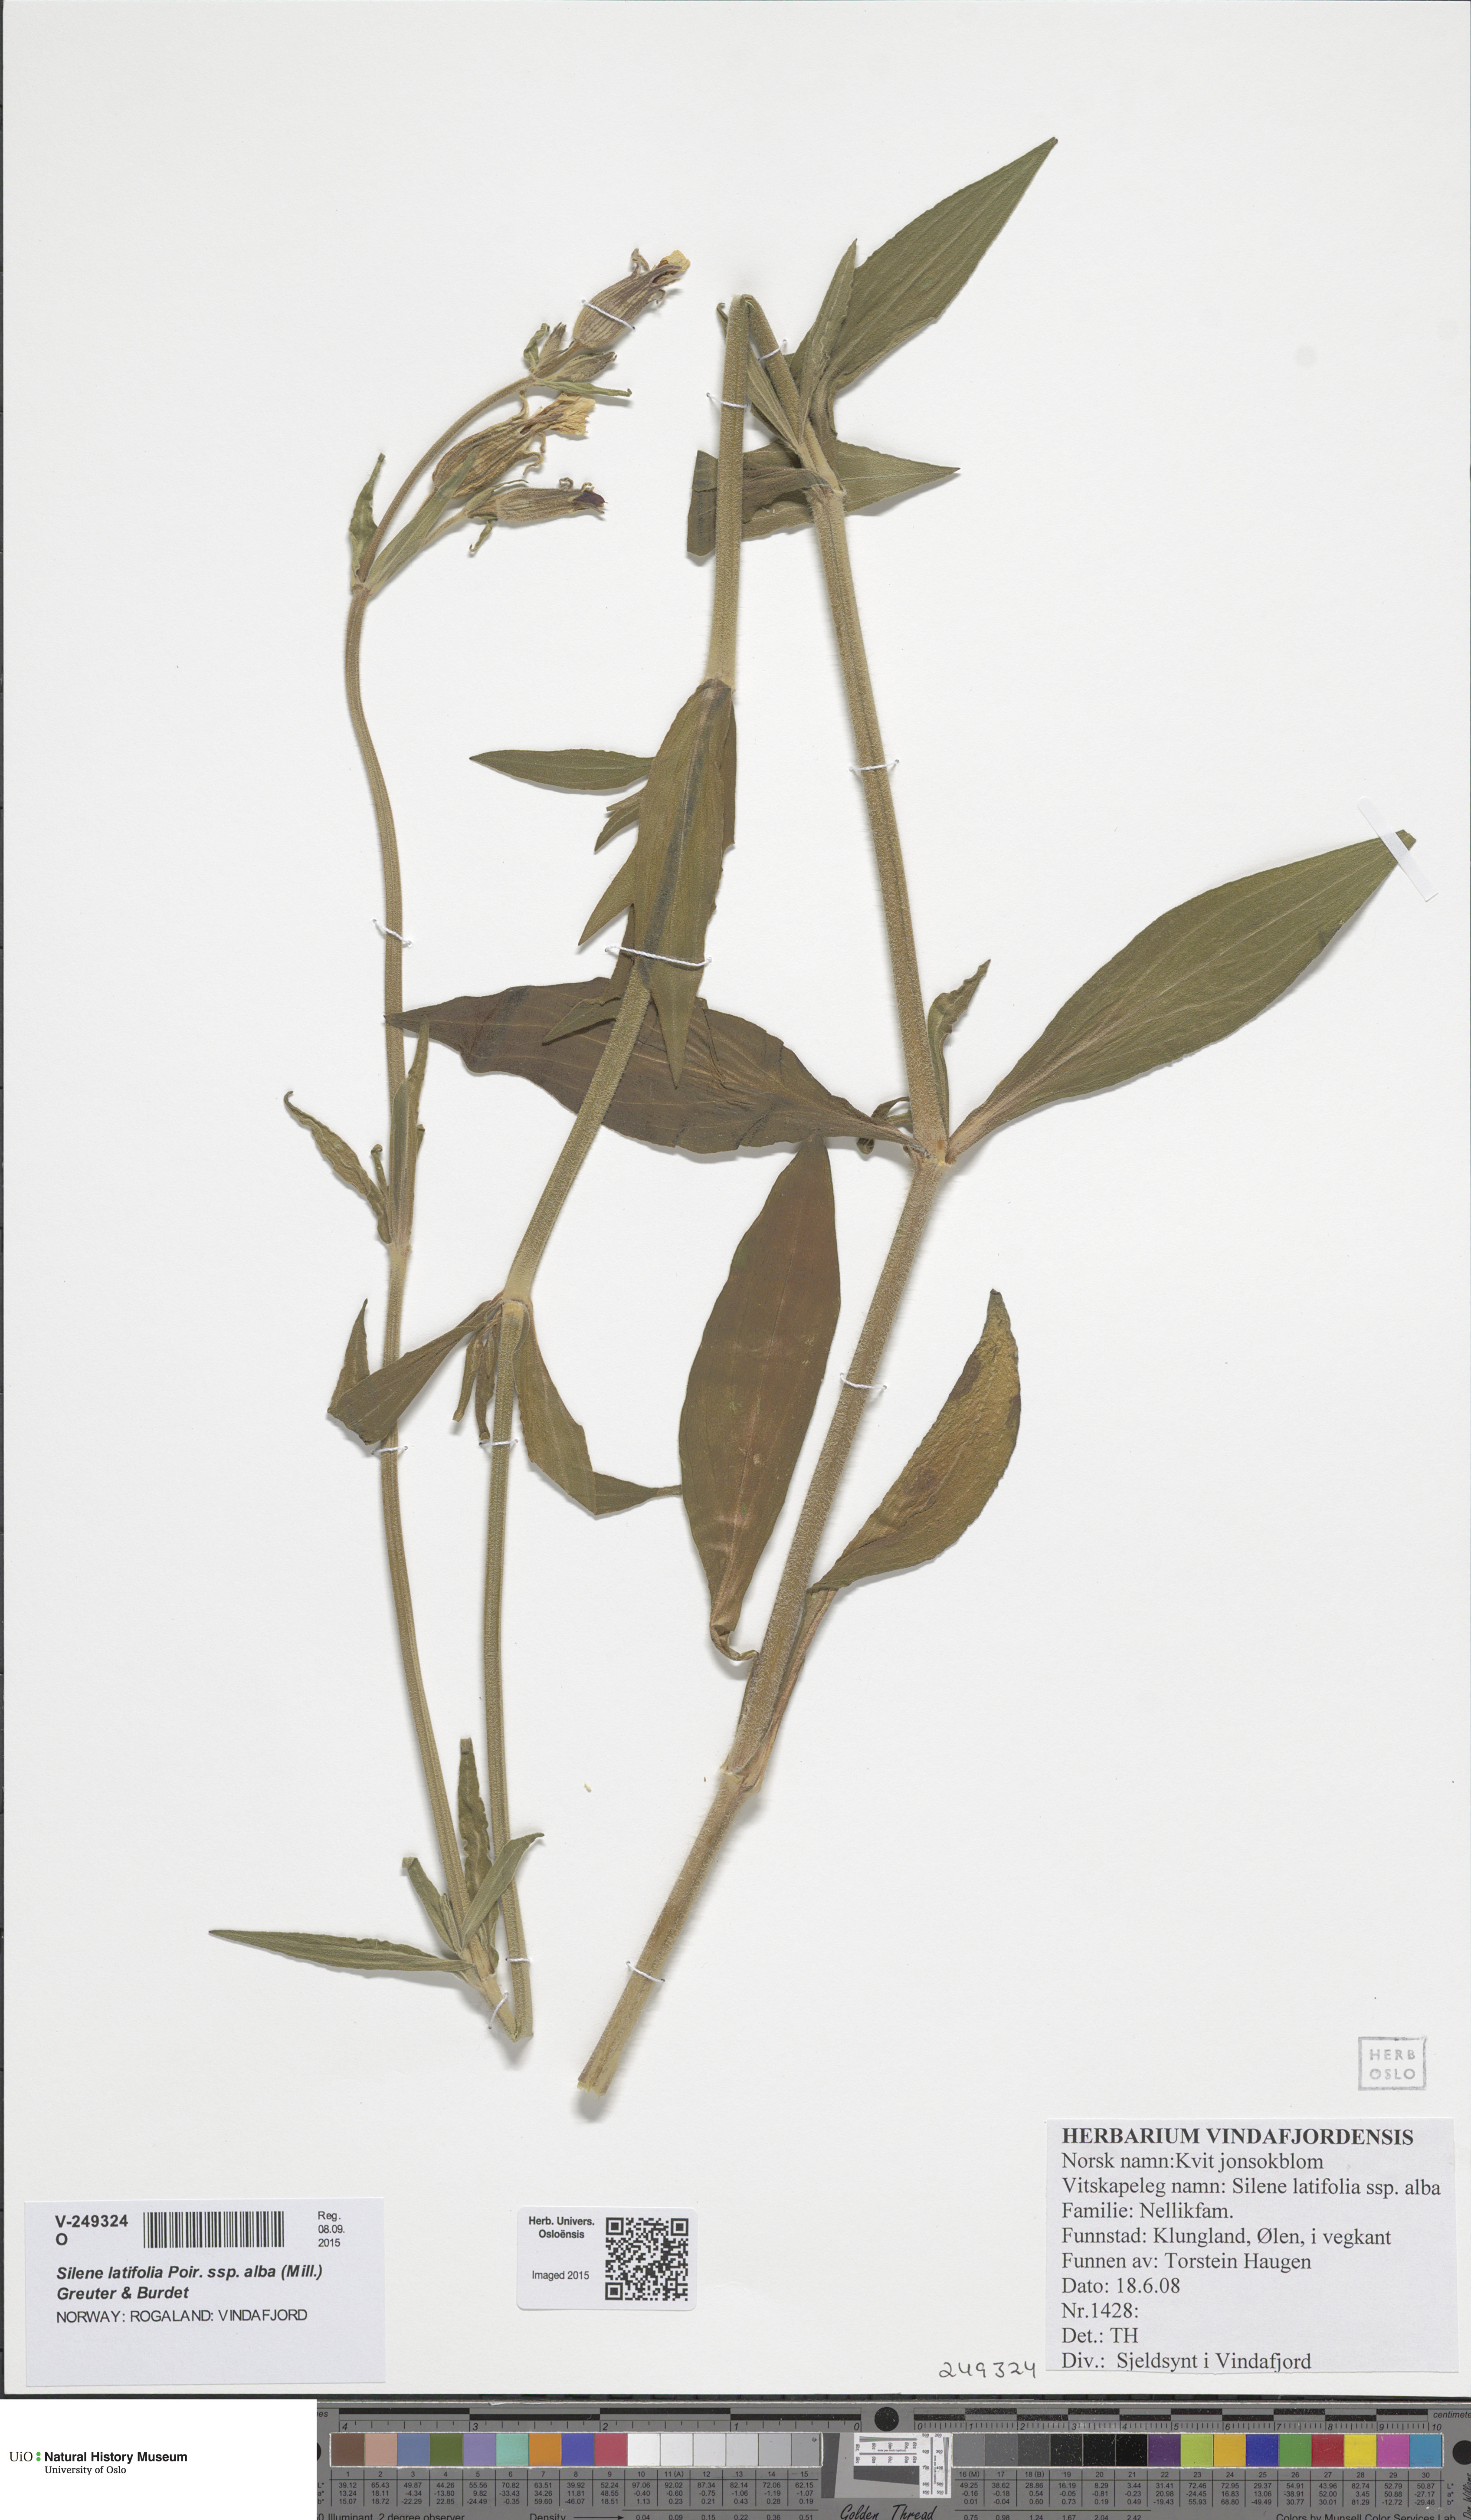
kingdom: Plantae
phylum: Tracheophyta
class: Magnoliopsida
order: Caryophyllales
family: Caryophyllaceae
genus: Silene
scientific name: Silene latifolia
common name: White campion
